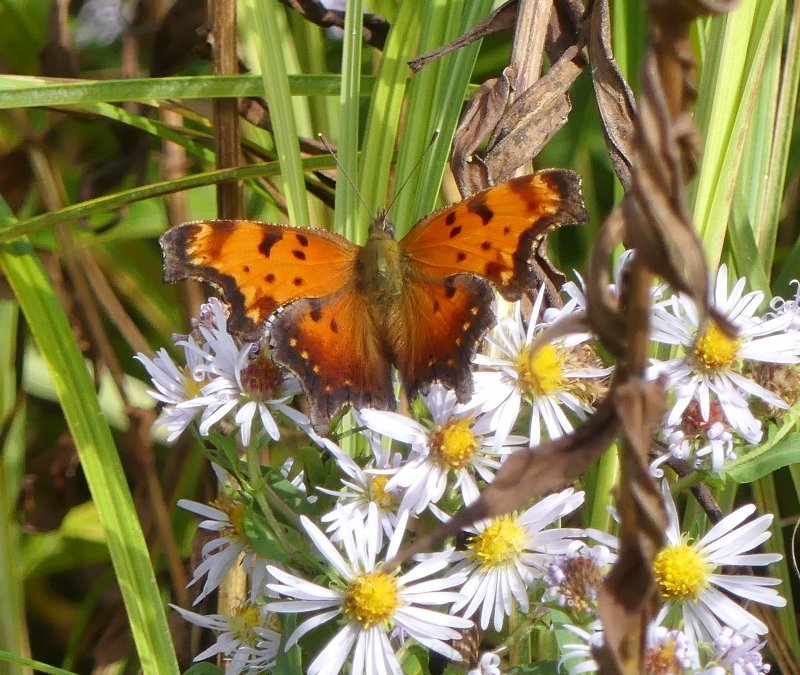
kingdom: Animalia
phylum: Arthropoda
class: Insecta
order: Lepidoptera
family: Nymphalidae
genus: Polygonia
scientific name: Polygonia progne
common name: Gray Comma
